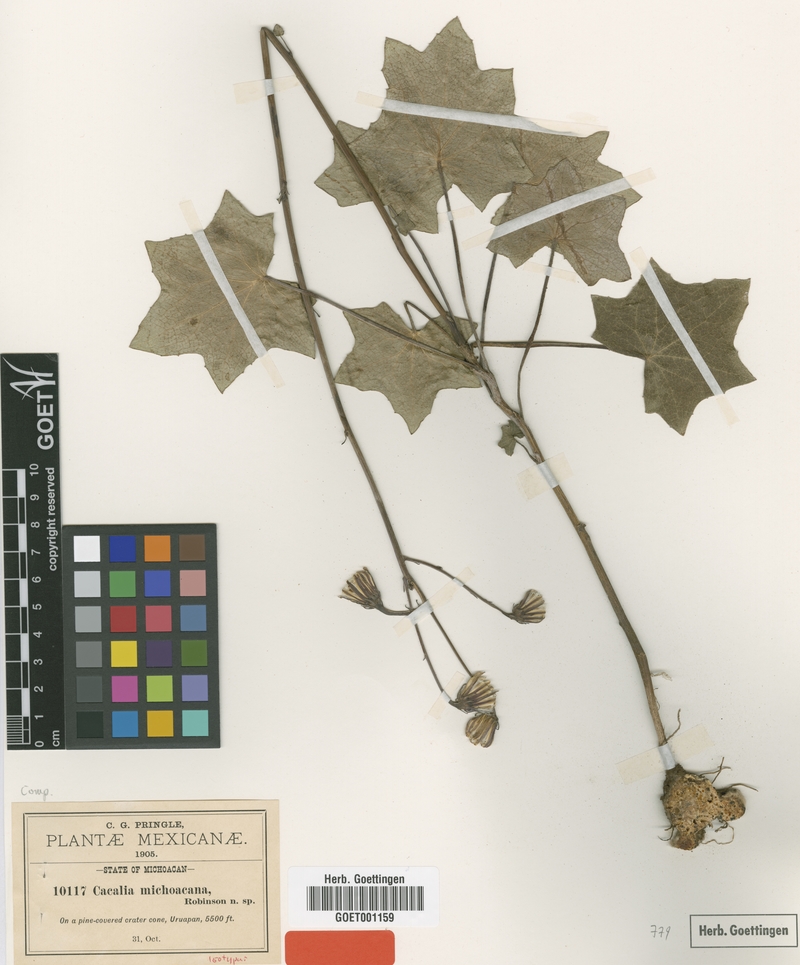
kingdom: Plantae
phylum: Tracheophyta
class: Magnoliopsida
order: Asterales
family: Asteraceae
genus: Roldana
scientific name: Roldana michoacana
